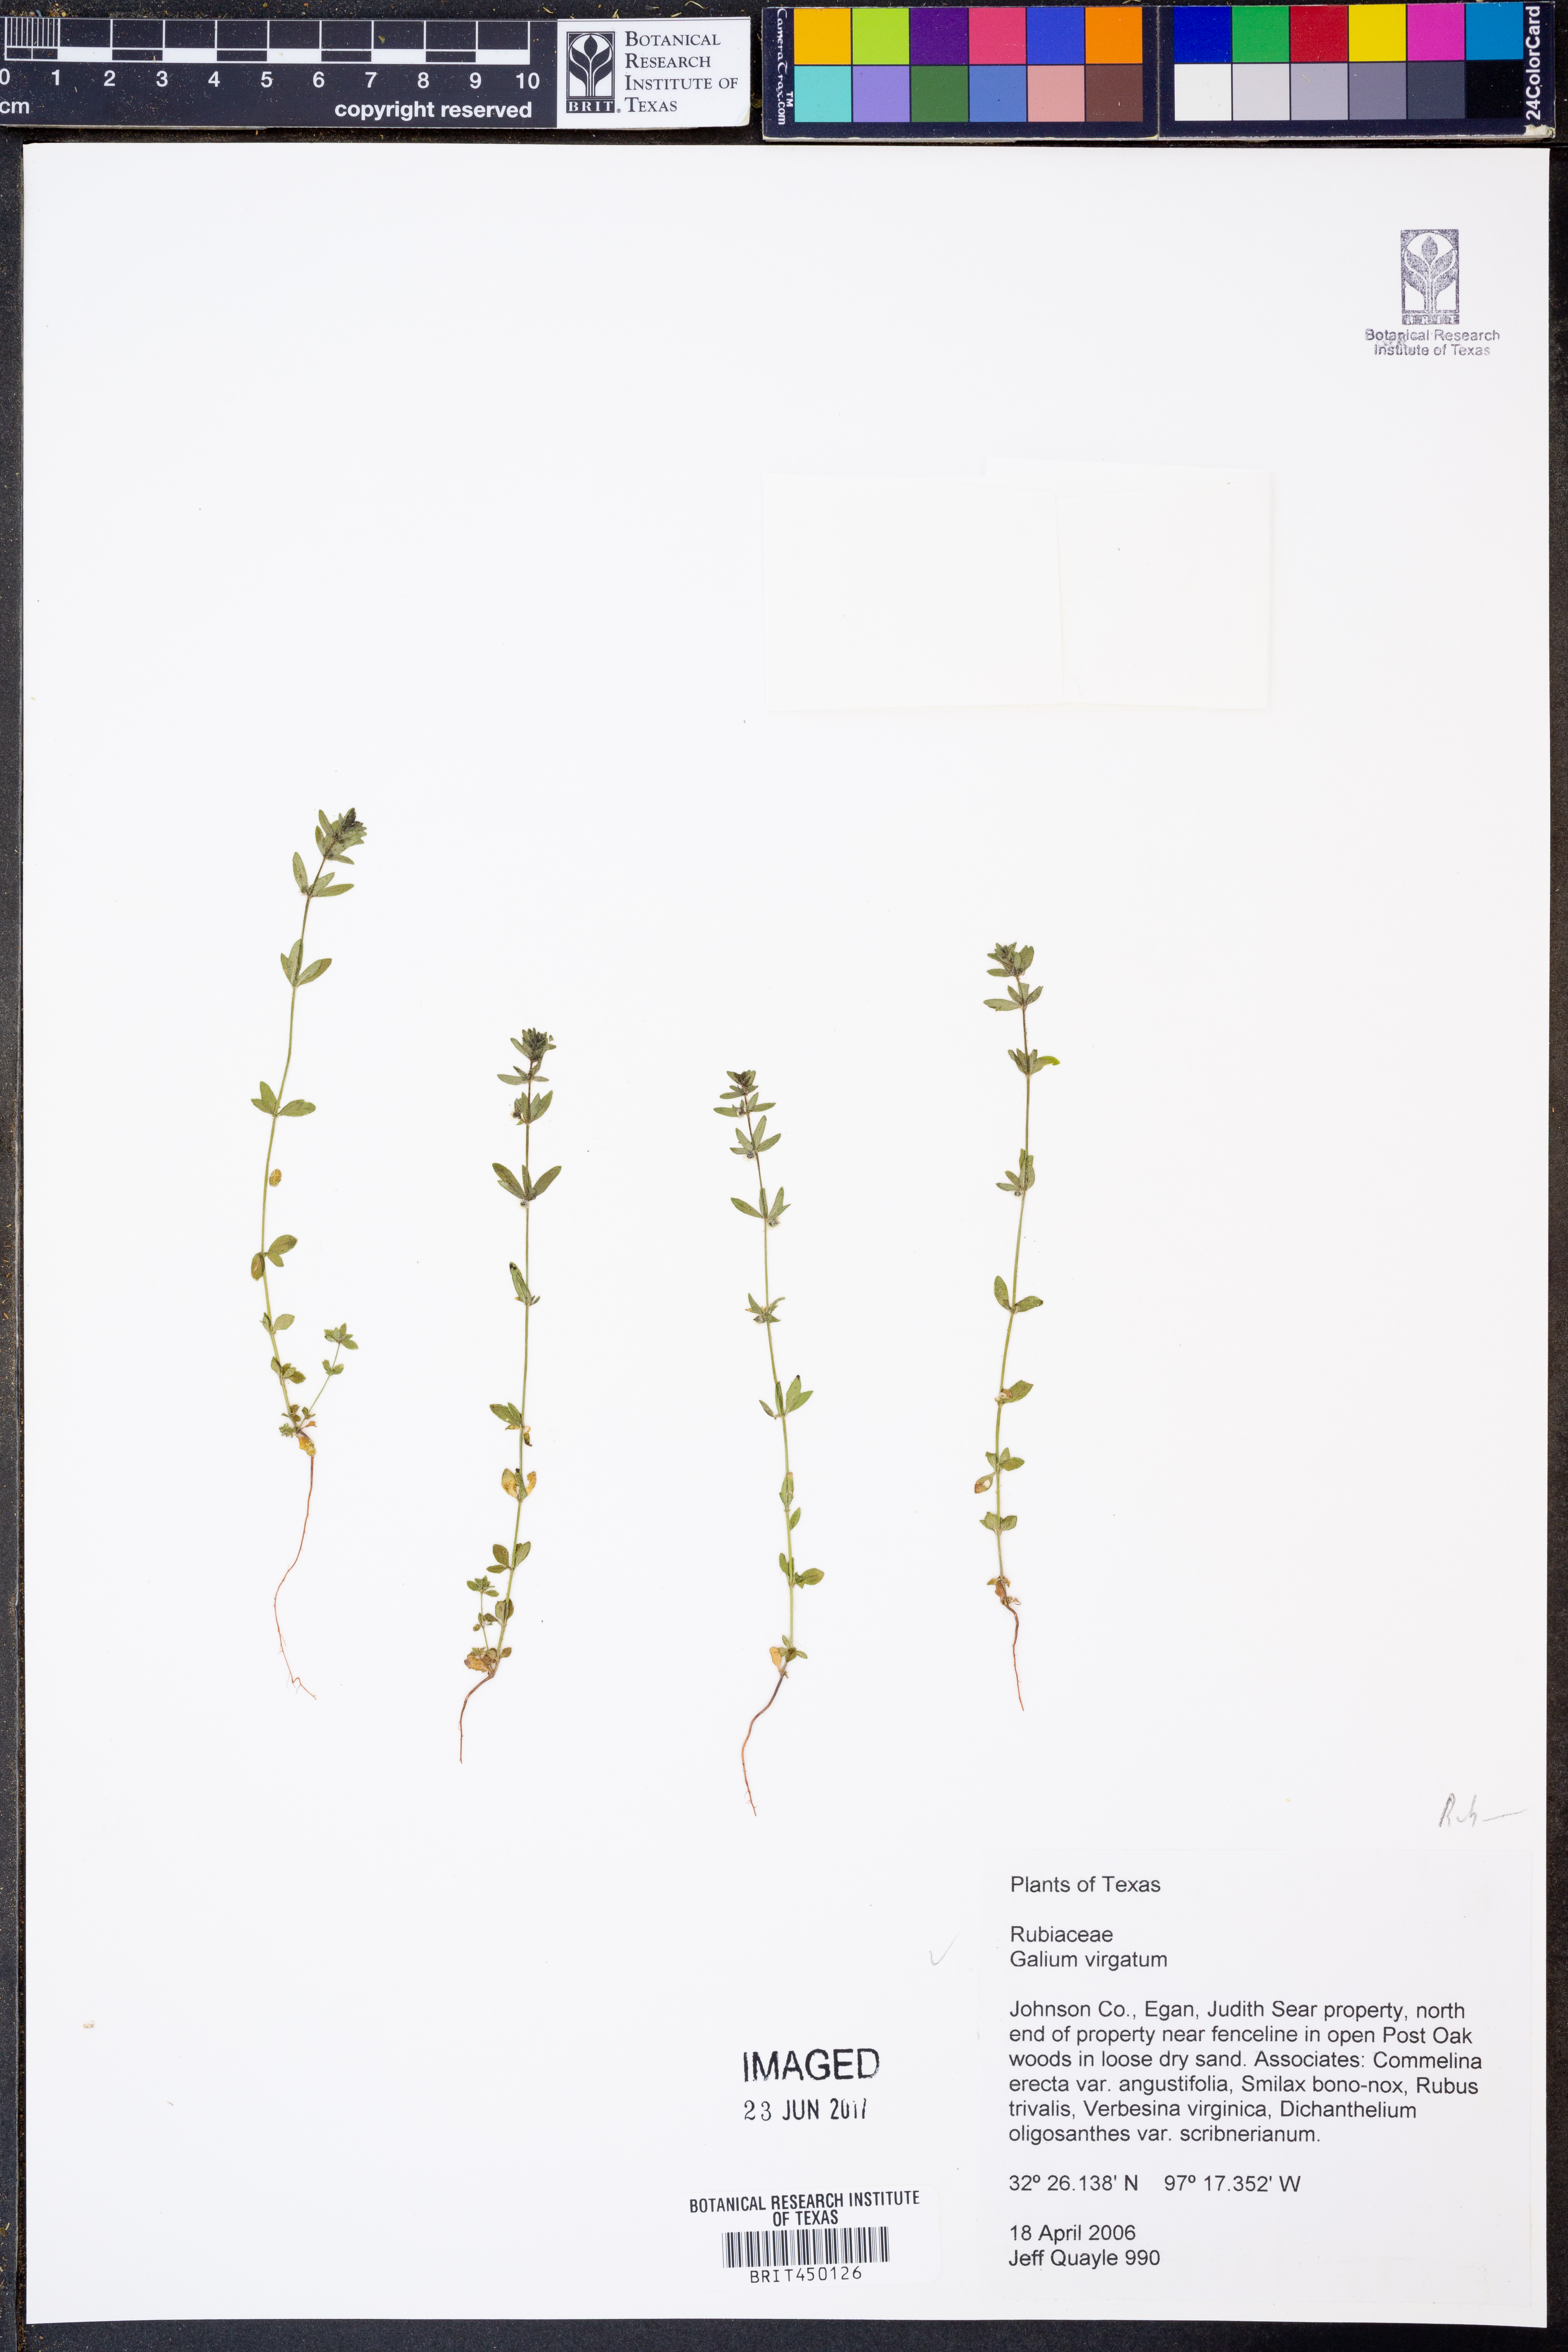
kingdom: Plantae
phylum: Tracheophyta
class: Magnoliopsida
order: Gentianales
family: Rubiaceae
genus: Galium
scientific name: Galium virgatum
